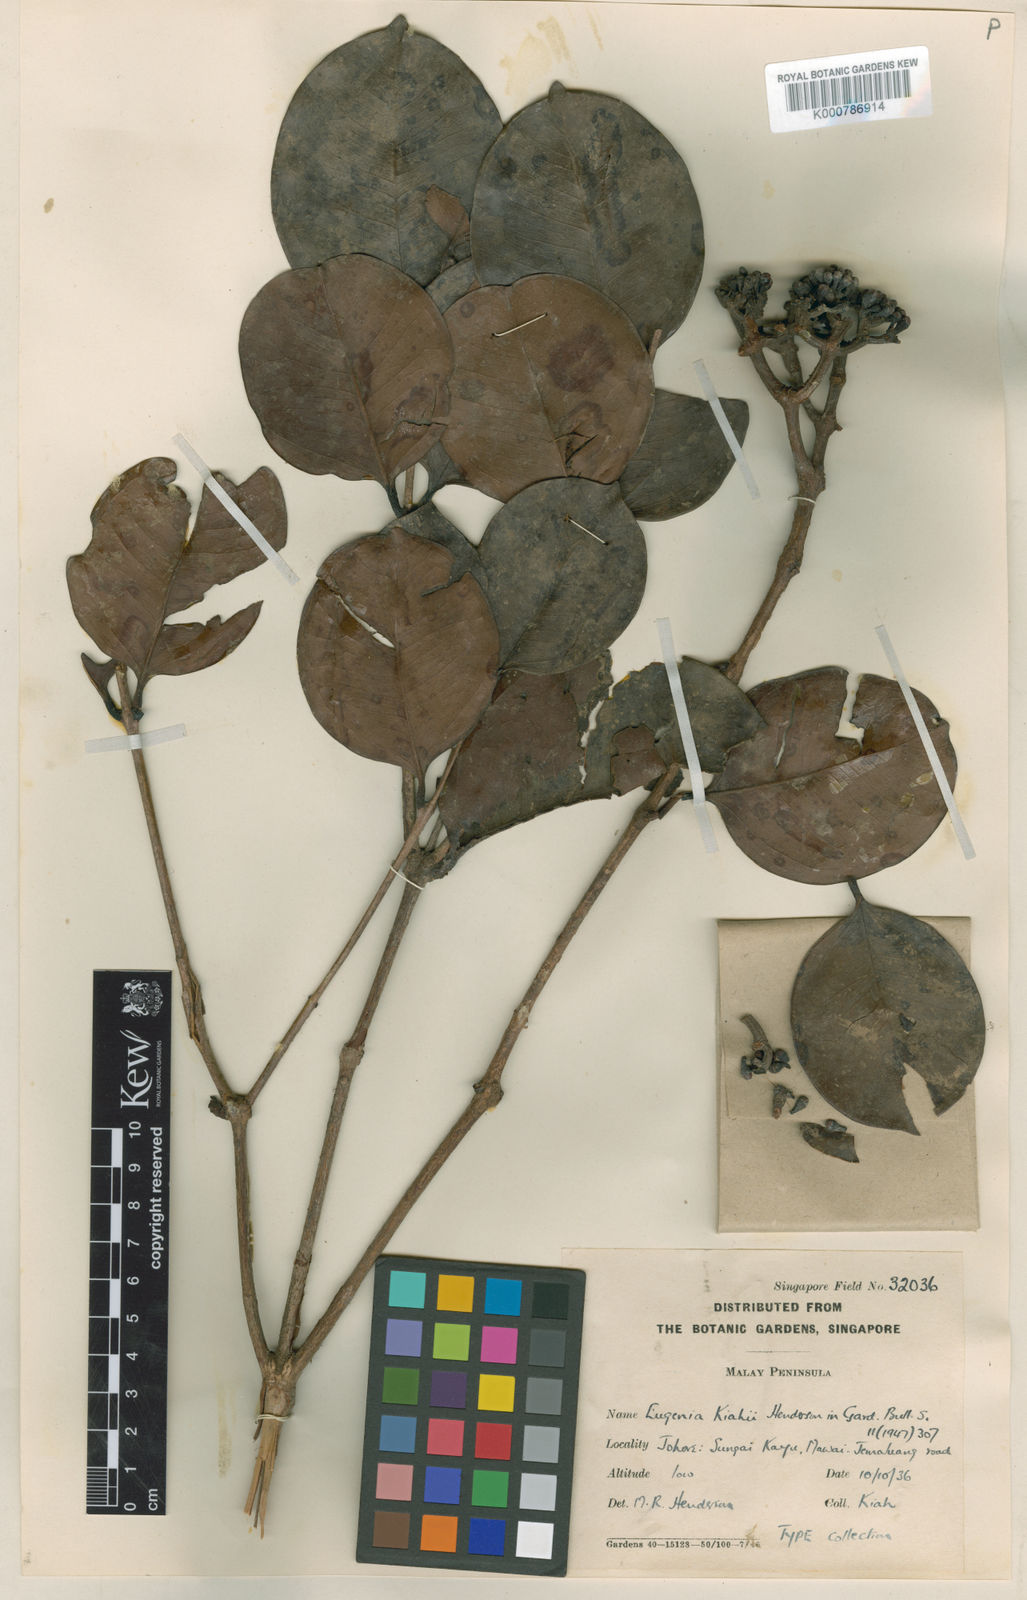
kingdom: Plantae
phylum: Tracheophyta
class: Magnoliopsida
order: Myrtales
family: Myrtaceae
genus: Syzygium
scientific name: Syzygium kiahii
